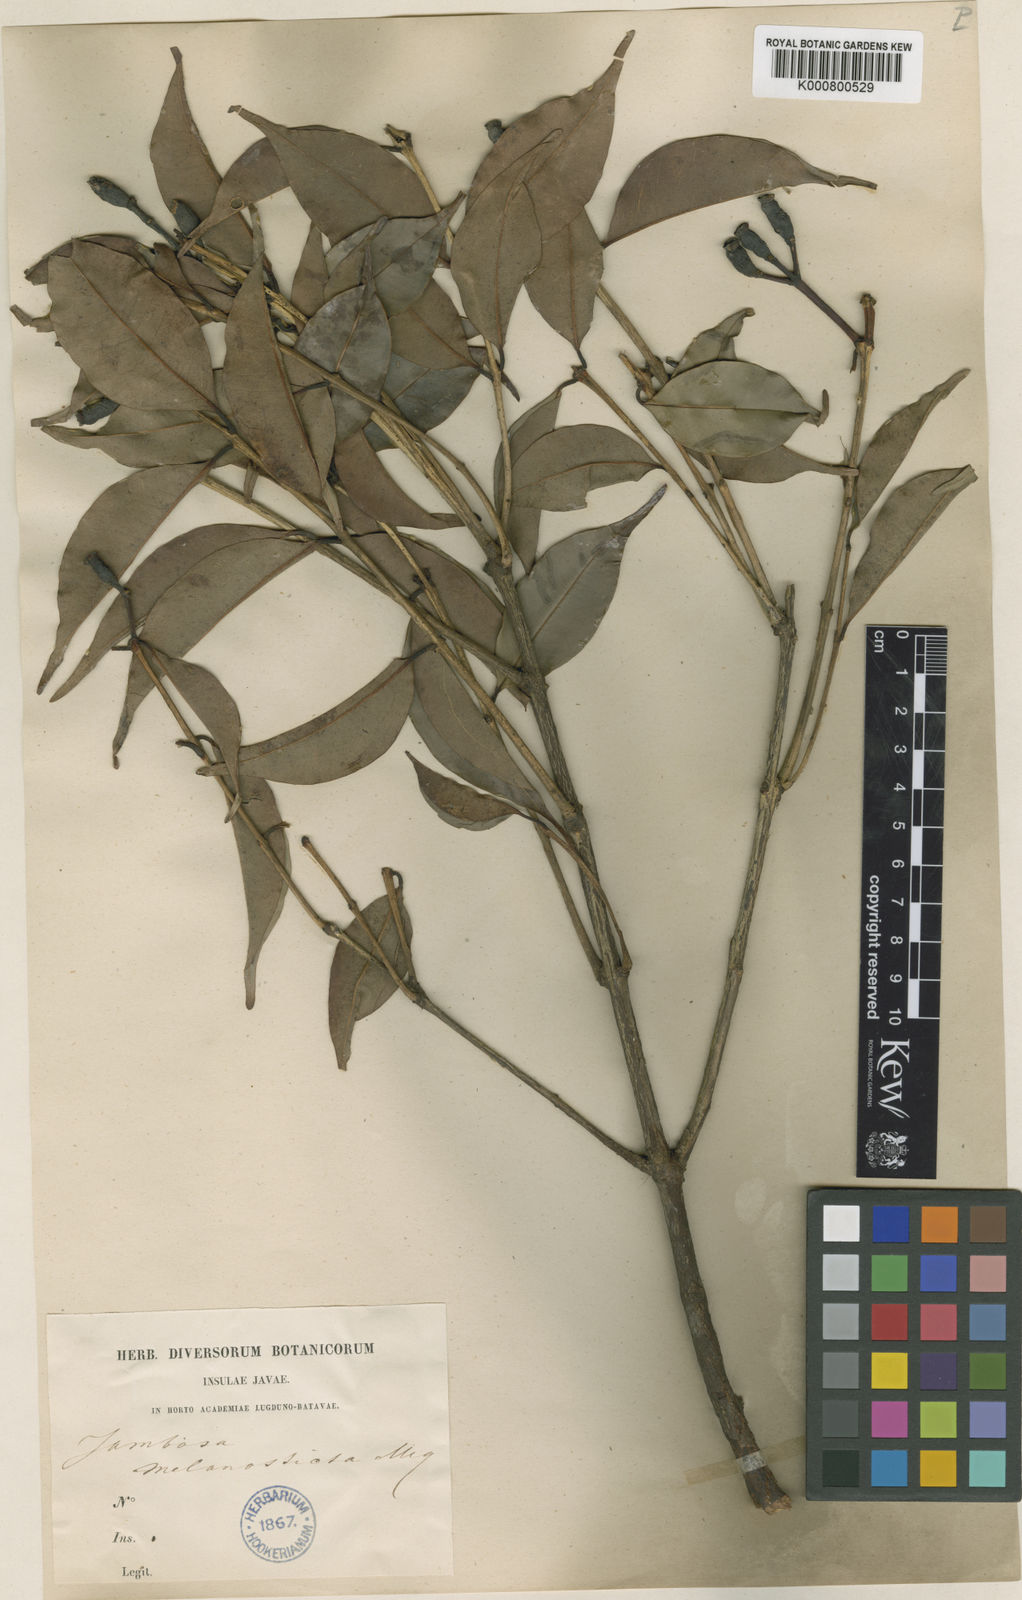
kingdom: Plantae
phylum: Tracheophyta
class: Magnoliopsida
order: Myrtales
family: Myrtaceae
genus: Syzygium
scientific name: Syzygium melanostictum
